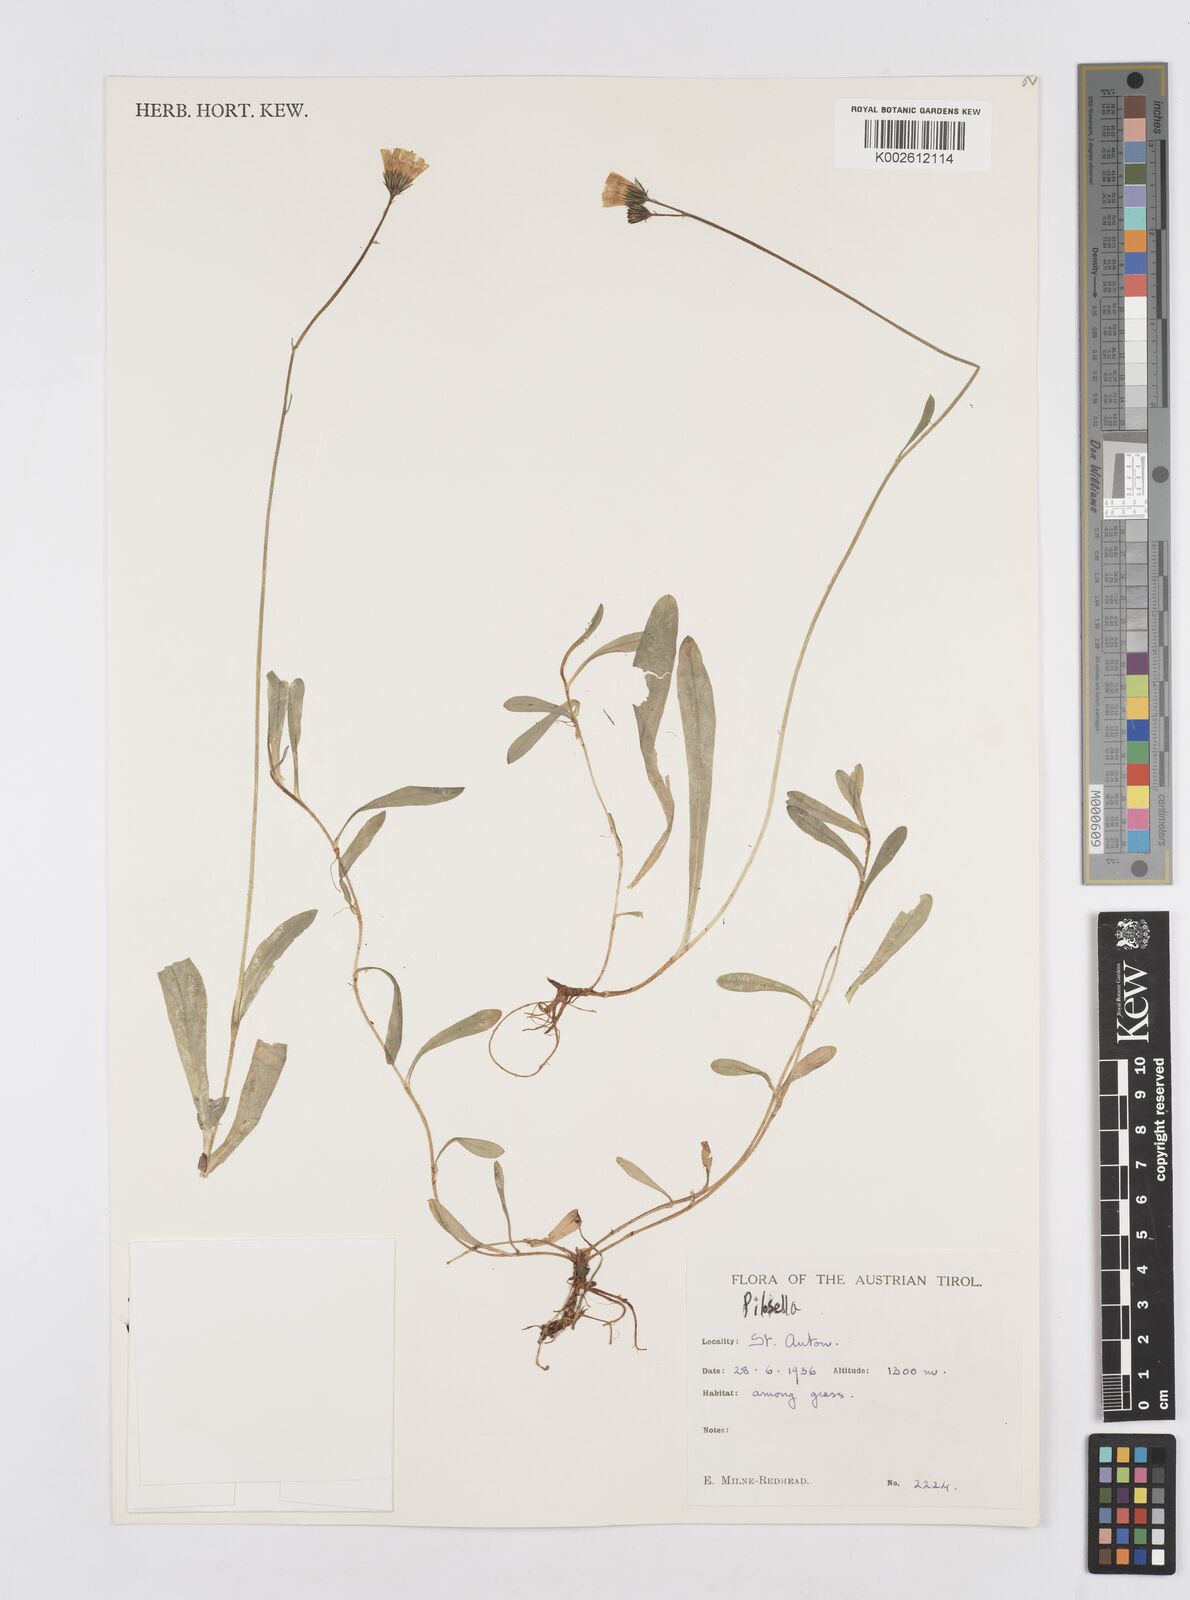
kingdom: Plantae
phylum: Tracheophyta
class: Magnoliopsida
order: Asterales
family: Asteraceae
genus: Hieracium
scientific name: Hieracium
